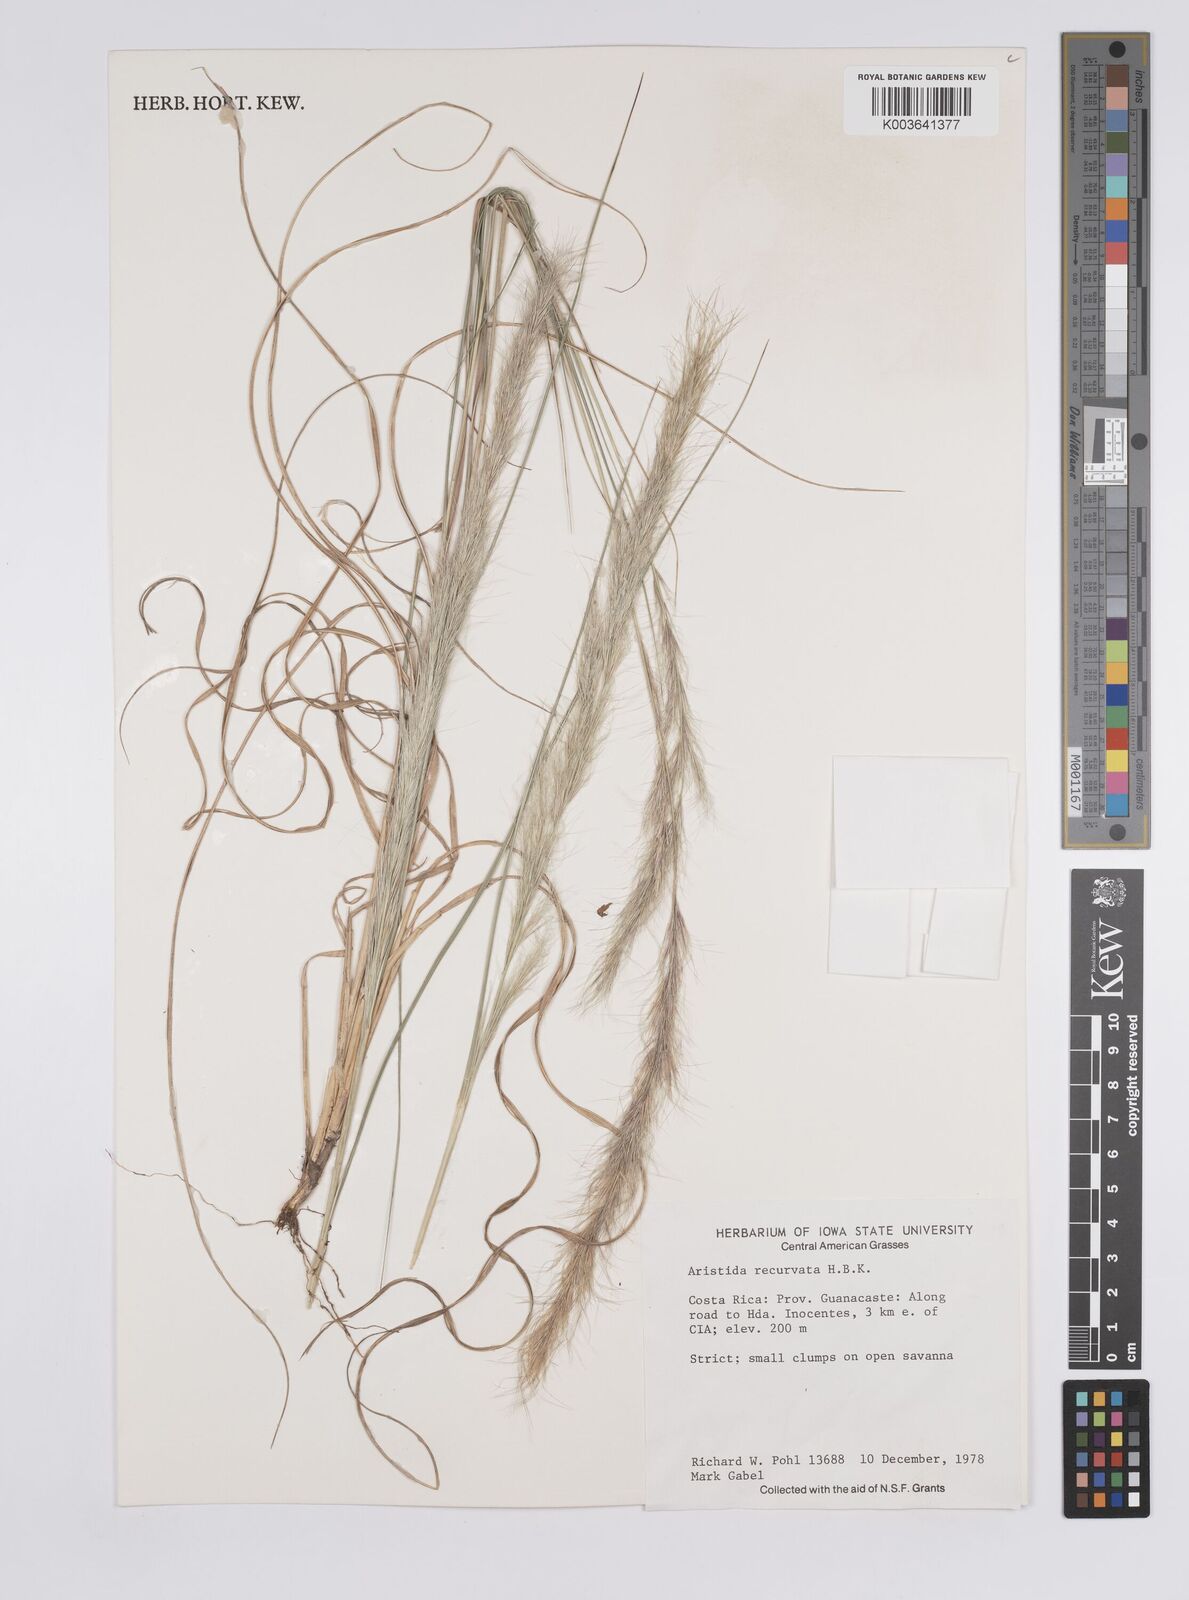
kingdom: Plantae
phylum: Tracheophyta
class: Liliopsida
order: Poales
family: Poaceae
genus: Aristida
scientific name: Aristida recurvata
